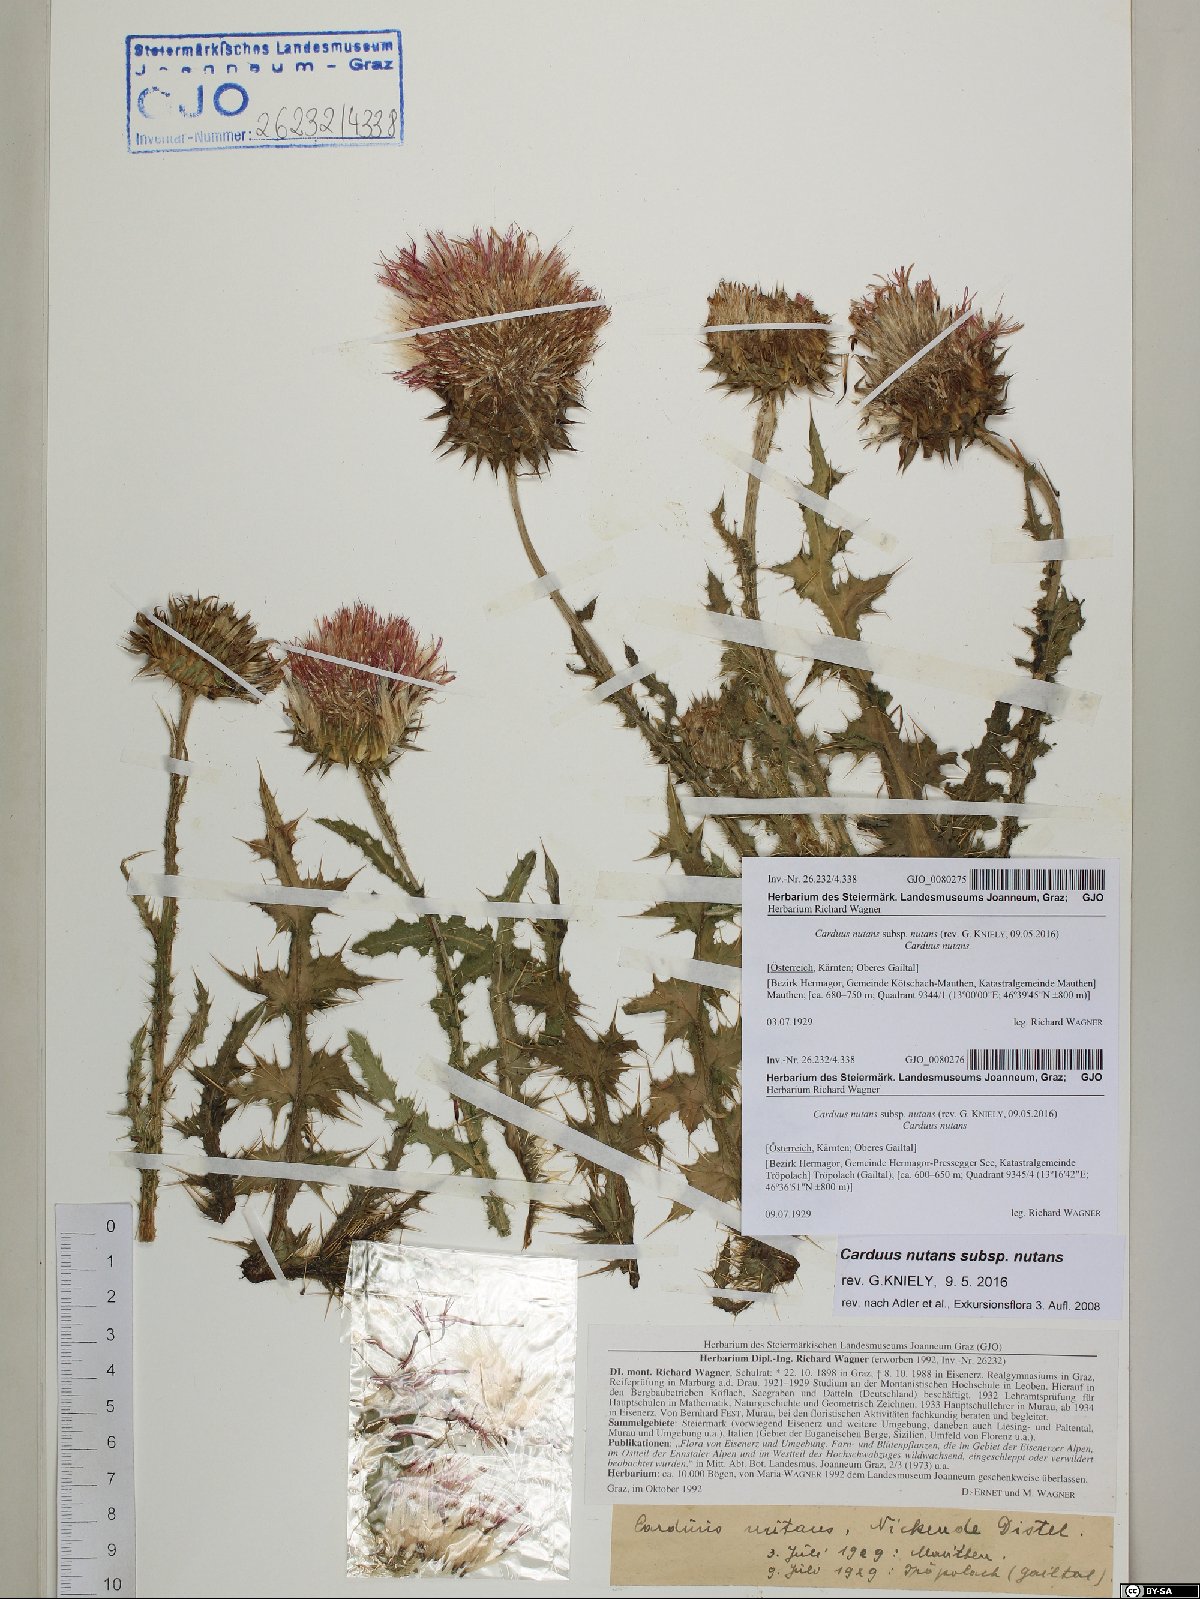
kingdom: Plantae
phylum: Tracheophyta
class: Magnoliopsida
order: Asterales
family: Asteraceae
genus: Carduus
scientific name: Carduus nutans
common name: Musk thistle
